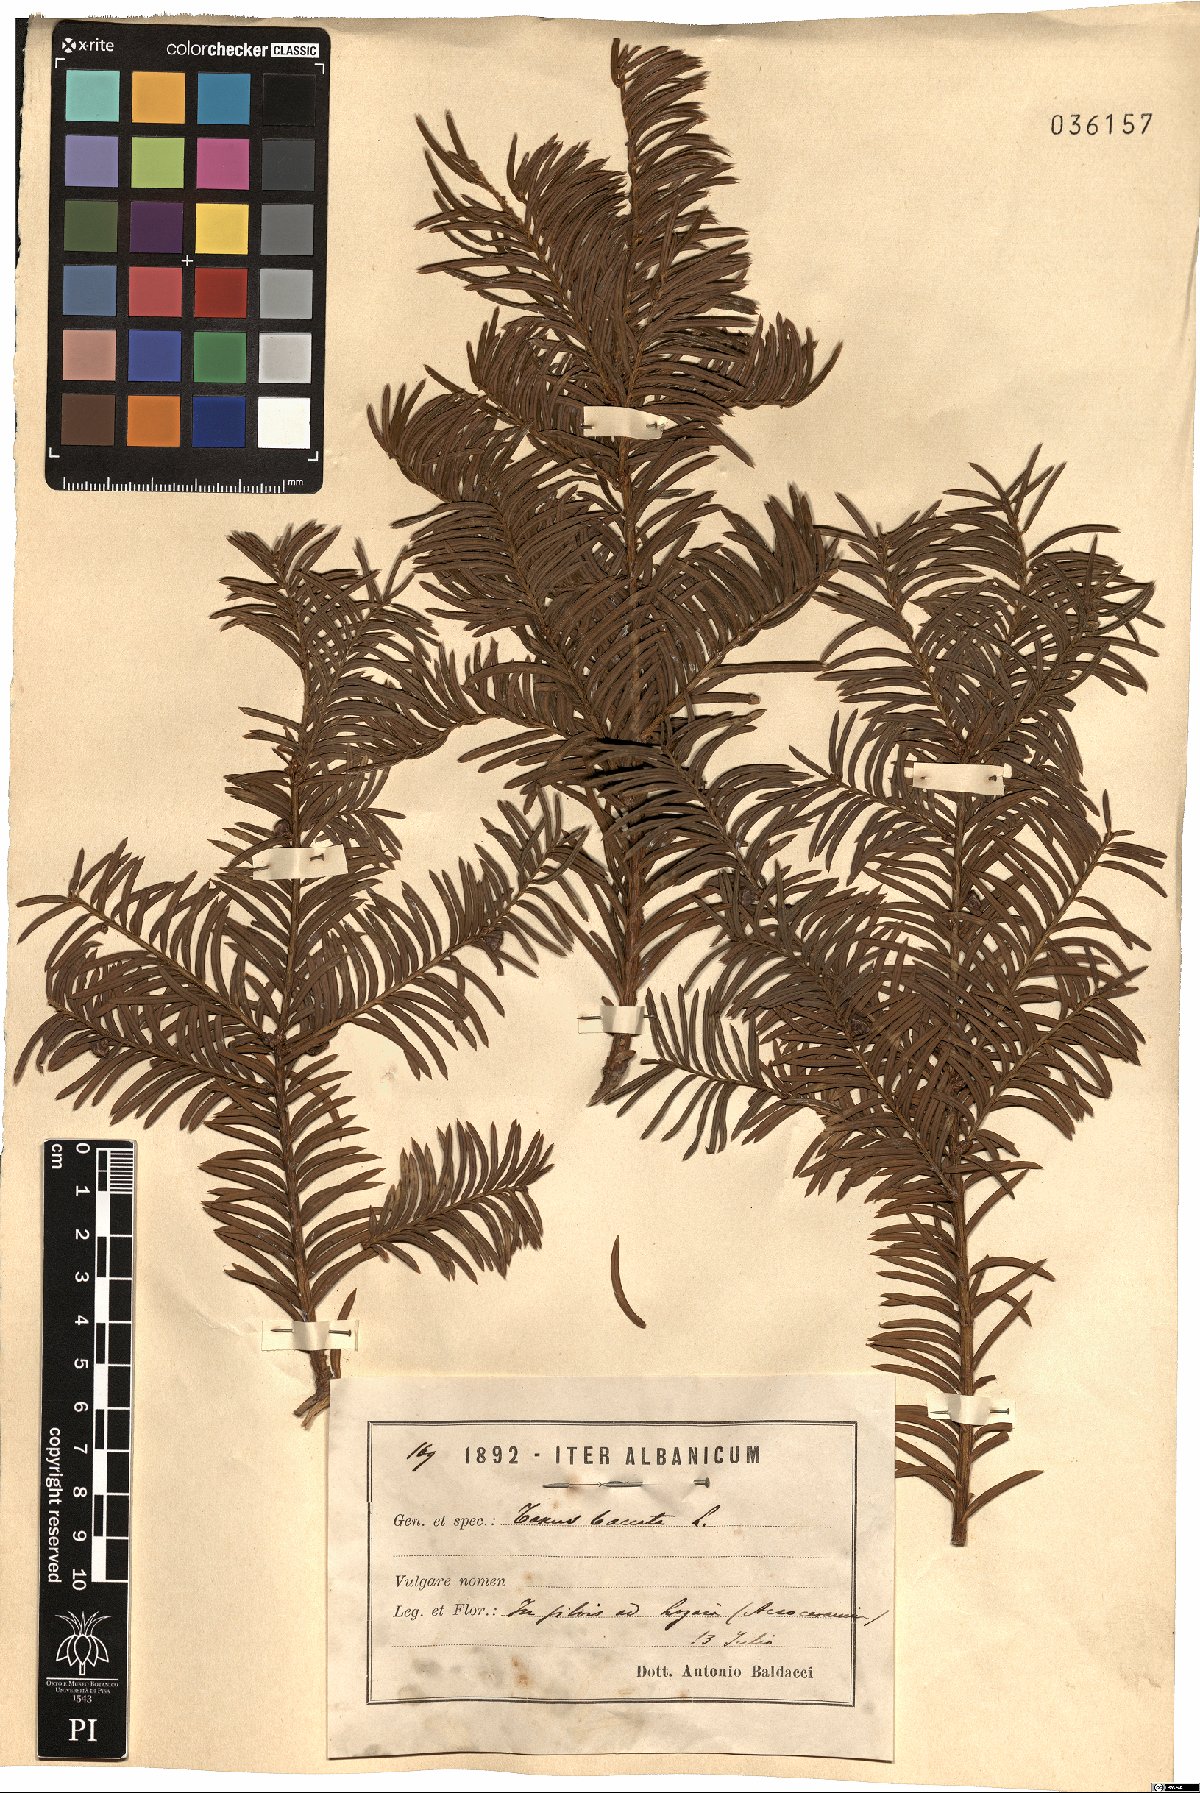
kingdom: Plantae
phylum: Tracheophyta
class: Pinopsida
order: Pinales
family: Taxaceae
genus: Taxus
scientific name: Taxus baccata
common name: Yew
